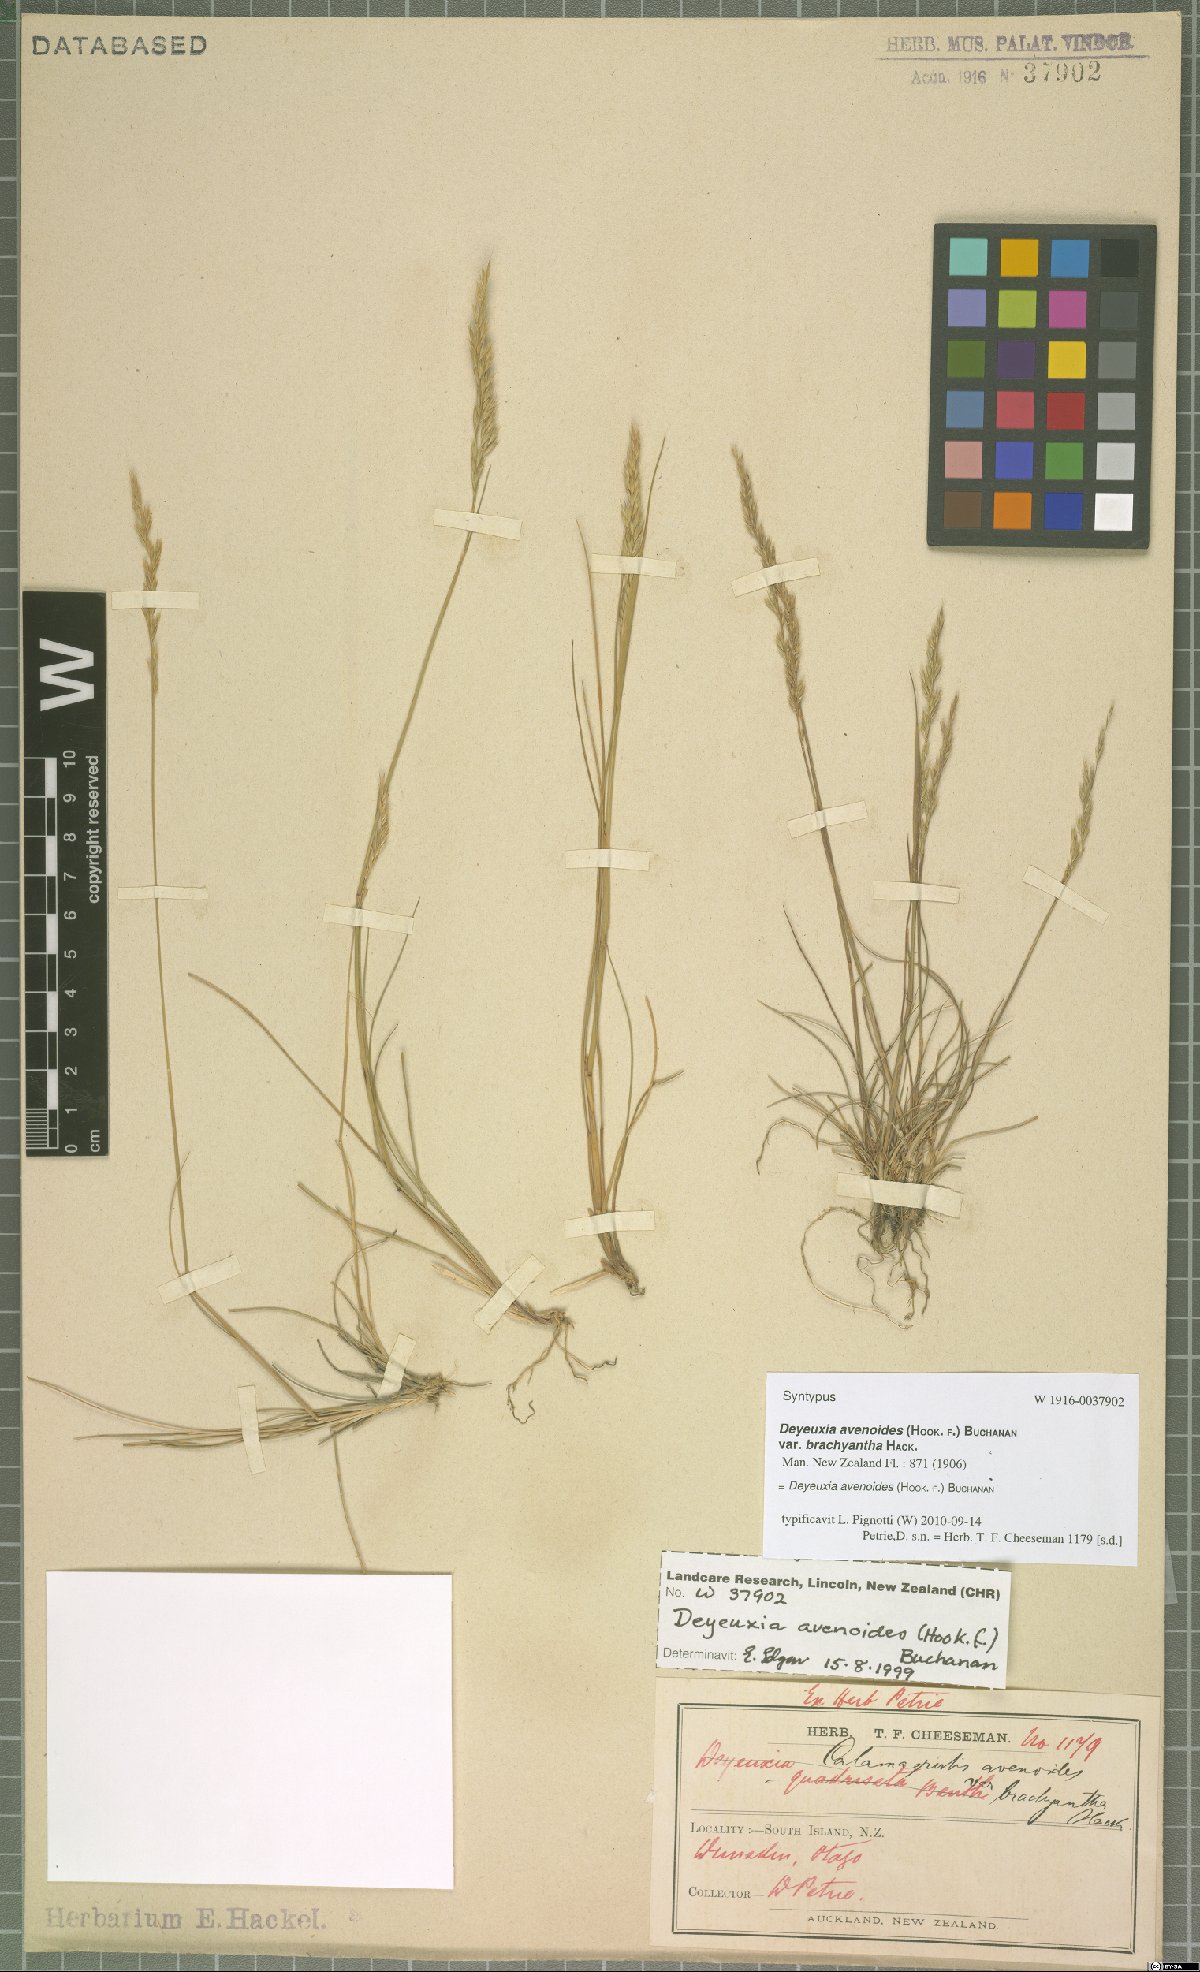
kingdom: Plantae
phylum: Tracheophyta
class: Liliopsida
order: Poales
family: Poaceae
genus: Calamagrostis
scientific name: Calamagrostis avenoides
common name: Mountain oat grass
